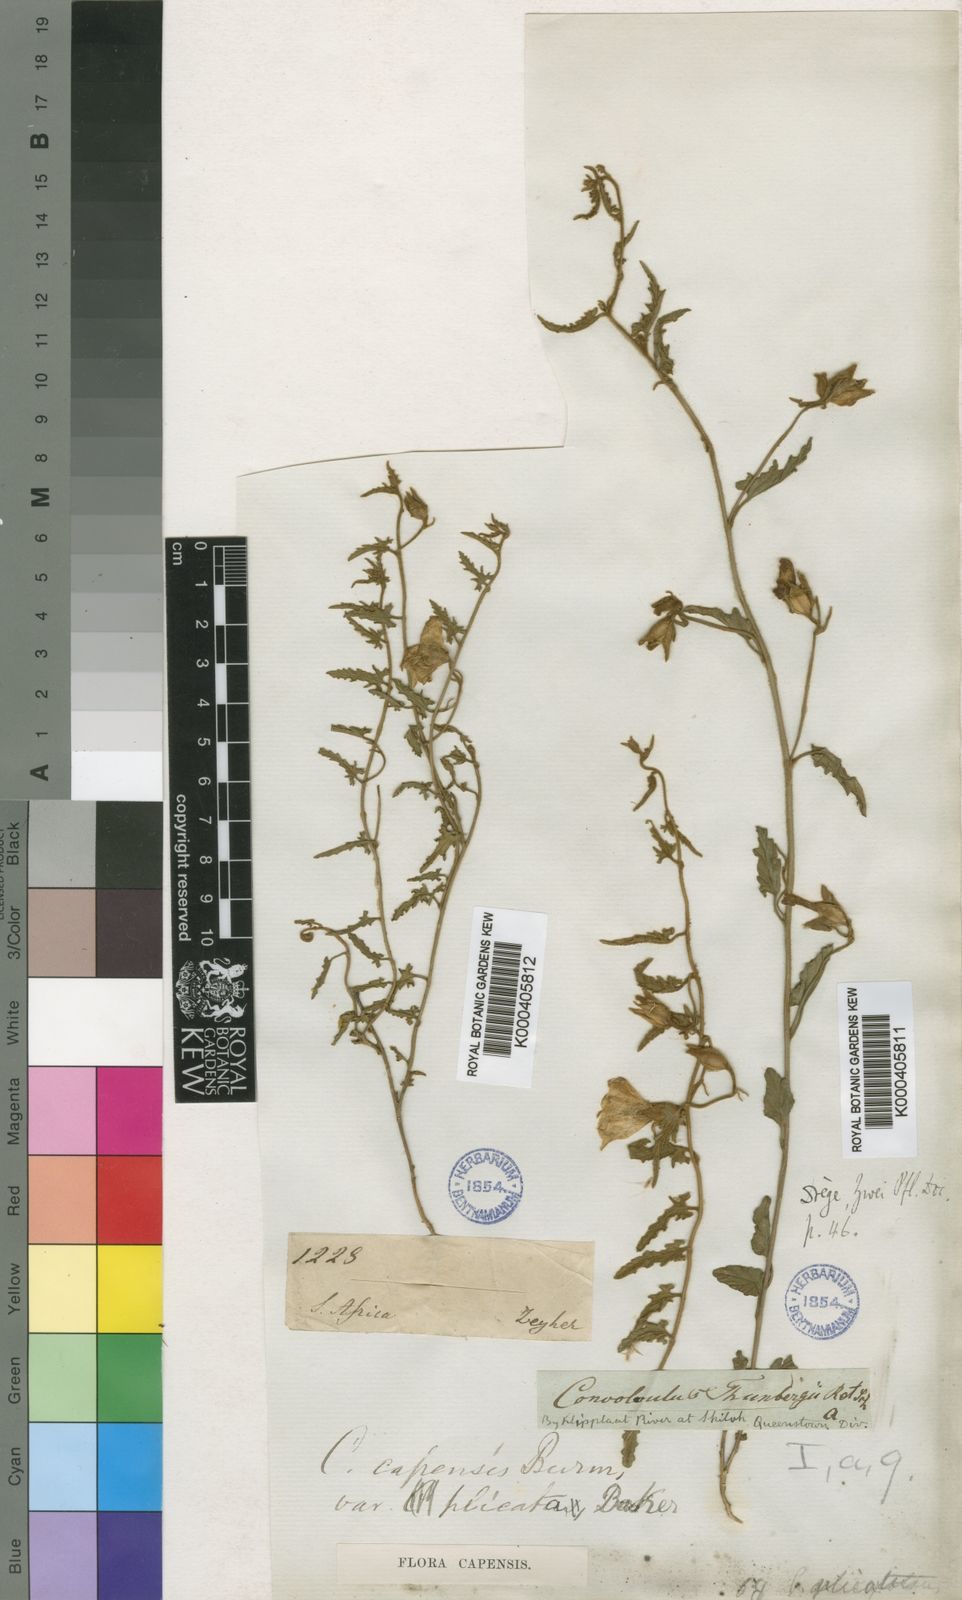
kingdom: Plantae
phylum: Tracheophyta
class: Magnoliopsida
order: Solanales
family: Convolvulaceae
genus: Convolvulus
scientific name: Convolvulus thunbergii
